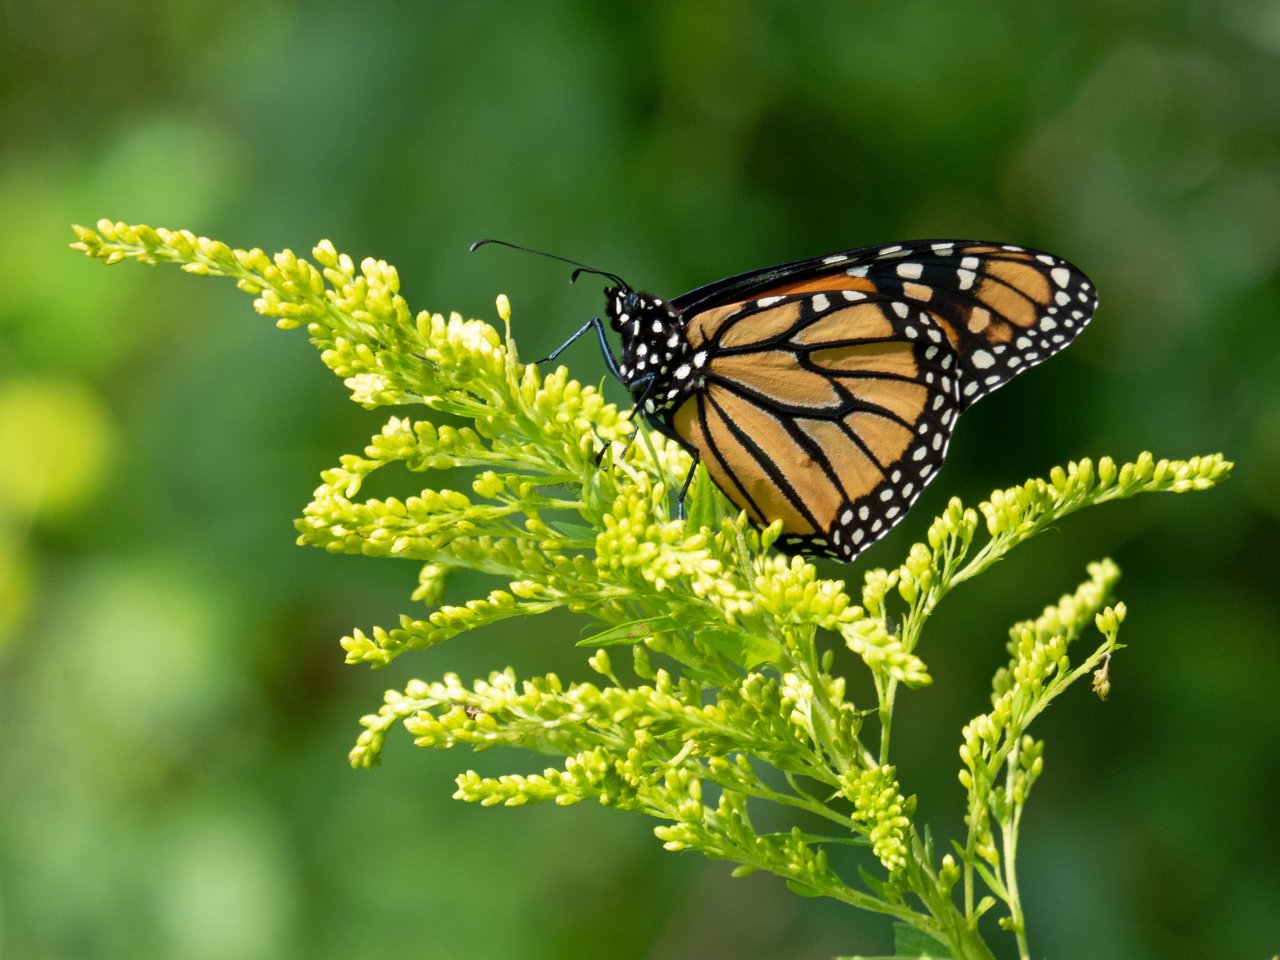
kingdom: Animalia
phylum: Arthropoda
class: Insecta
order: Lepidoptera
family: Nymphalidae
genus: Danaus
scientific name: Danaus plexippus
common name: Monarch
